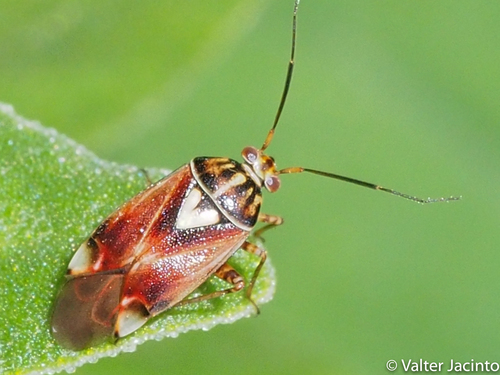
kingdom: Animalia
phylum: Arthropoda
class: Insecta
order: Hemiptera
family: Miridae
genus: Lygus
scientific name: Lygus pratensis
